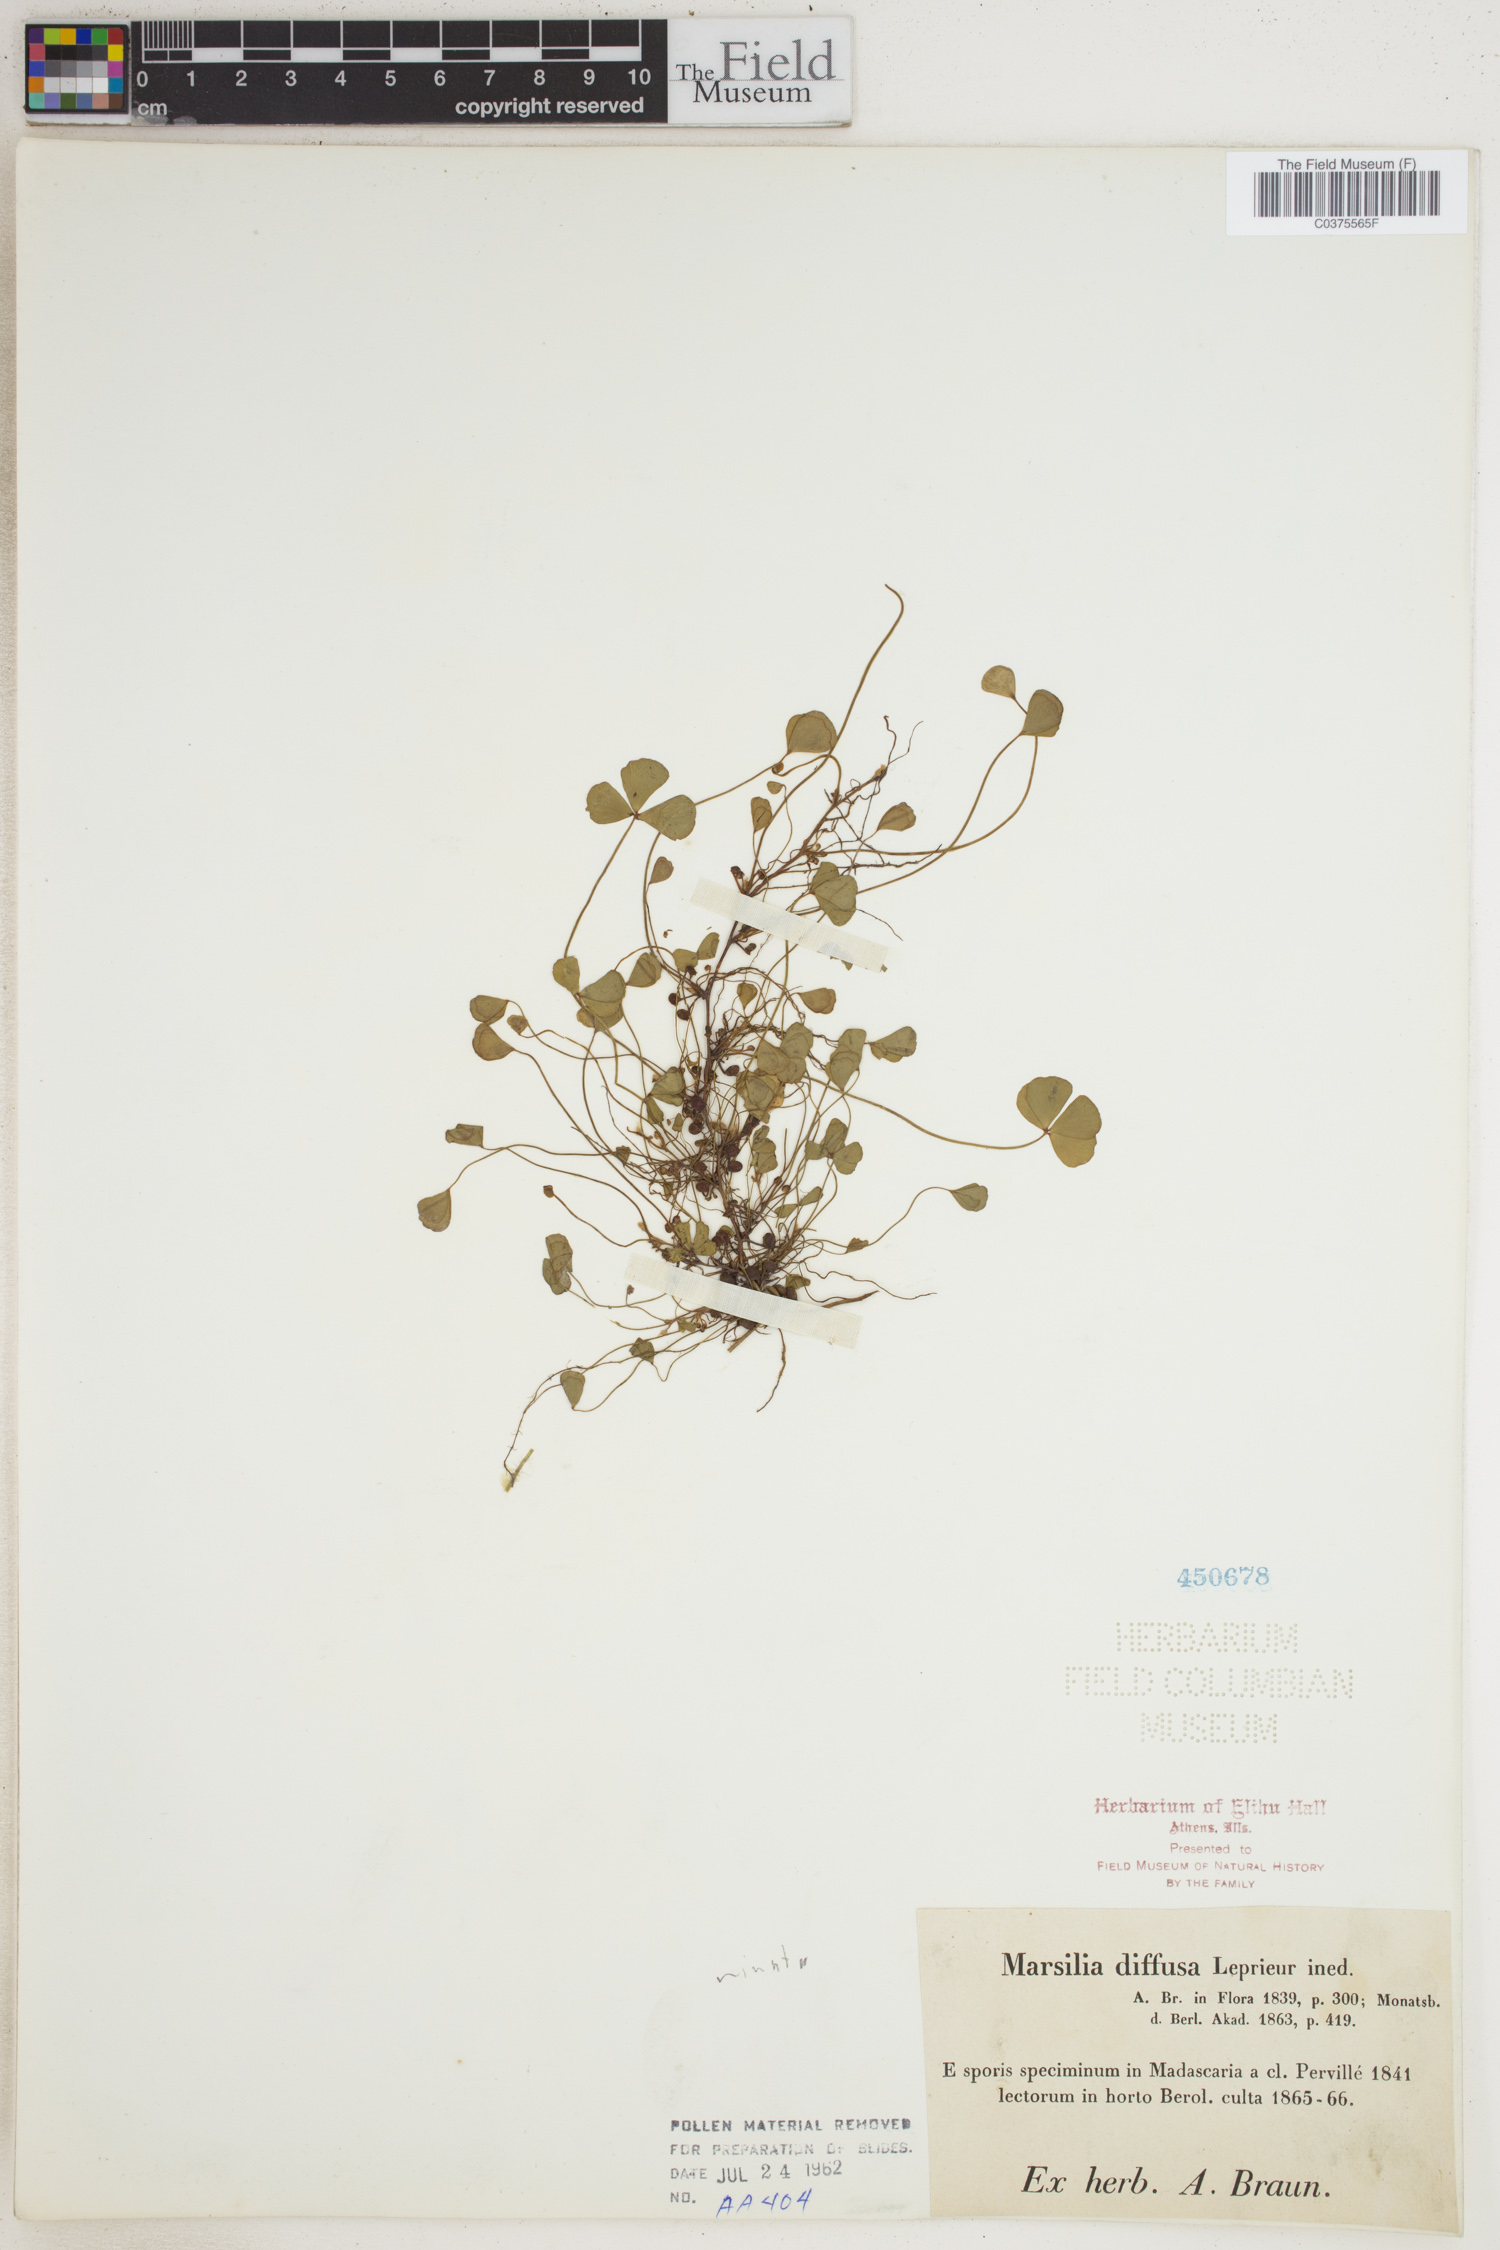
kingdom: Plantae
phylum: Tracheophyta
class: Polypodiopsida
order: Salviniales
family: Marsileaceae
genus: Marsilea
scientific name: Marsilea minuta
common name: Dwarf waterclover
